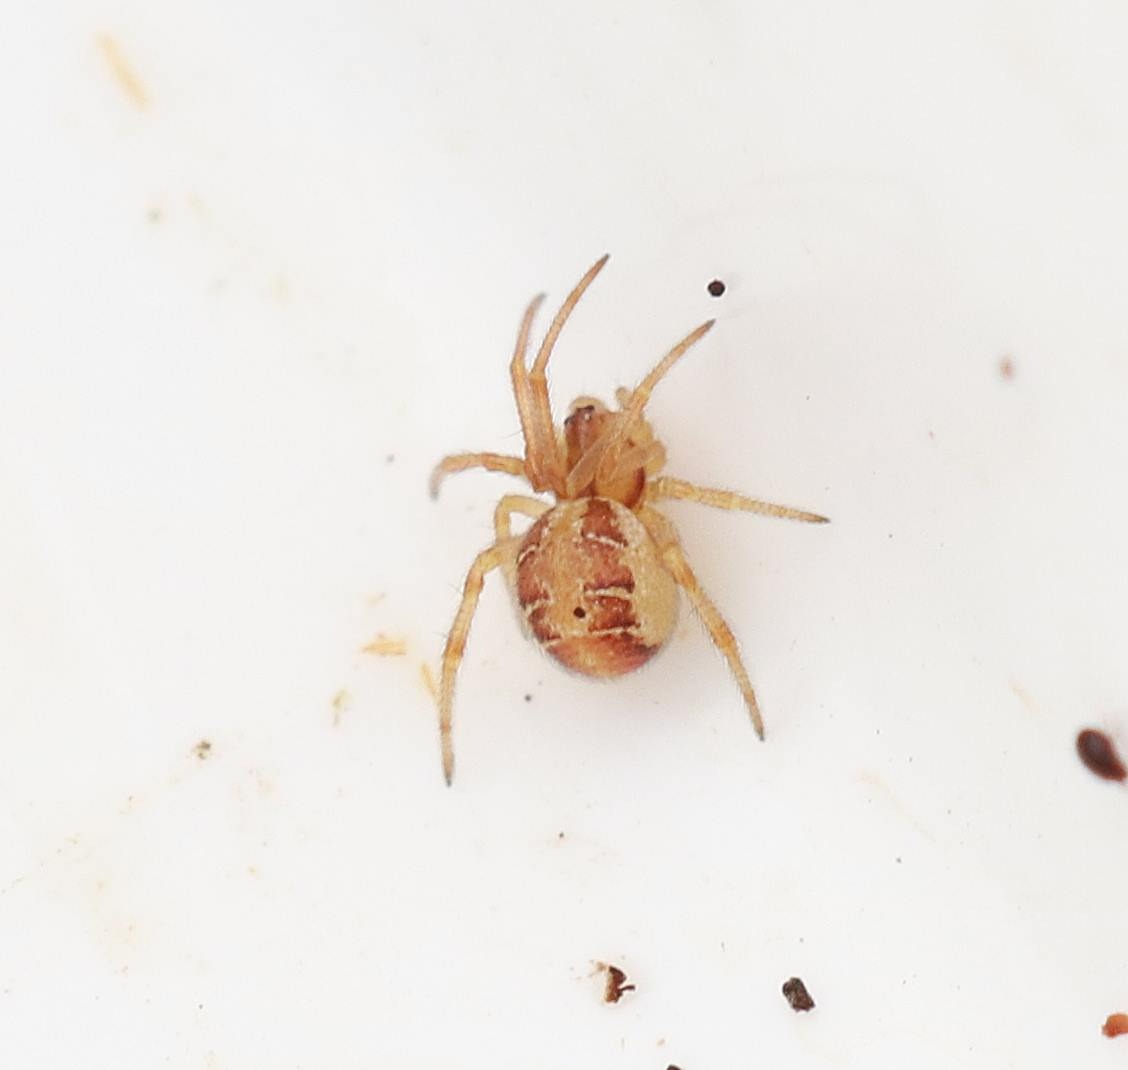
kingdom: Animalia
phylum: Arthropoda
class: Arachnida
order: Araneae
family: Theridiidae
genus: Phylloneta
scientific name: Phylloneta
